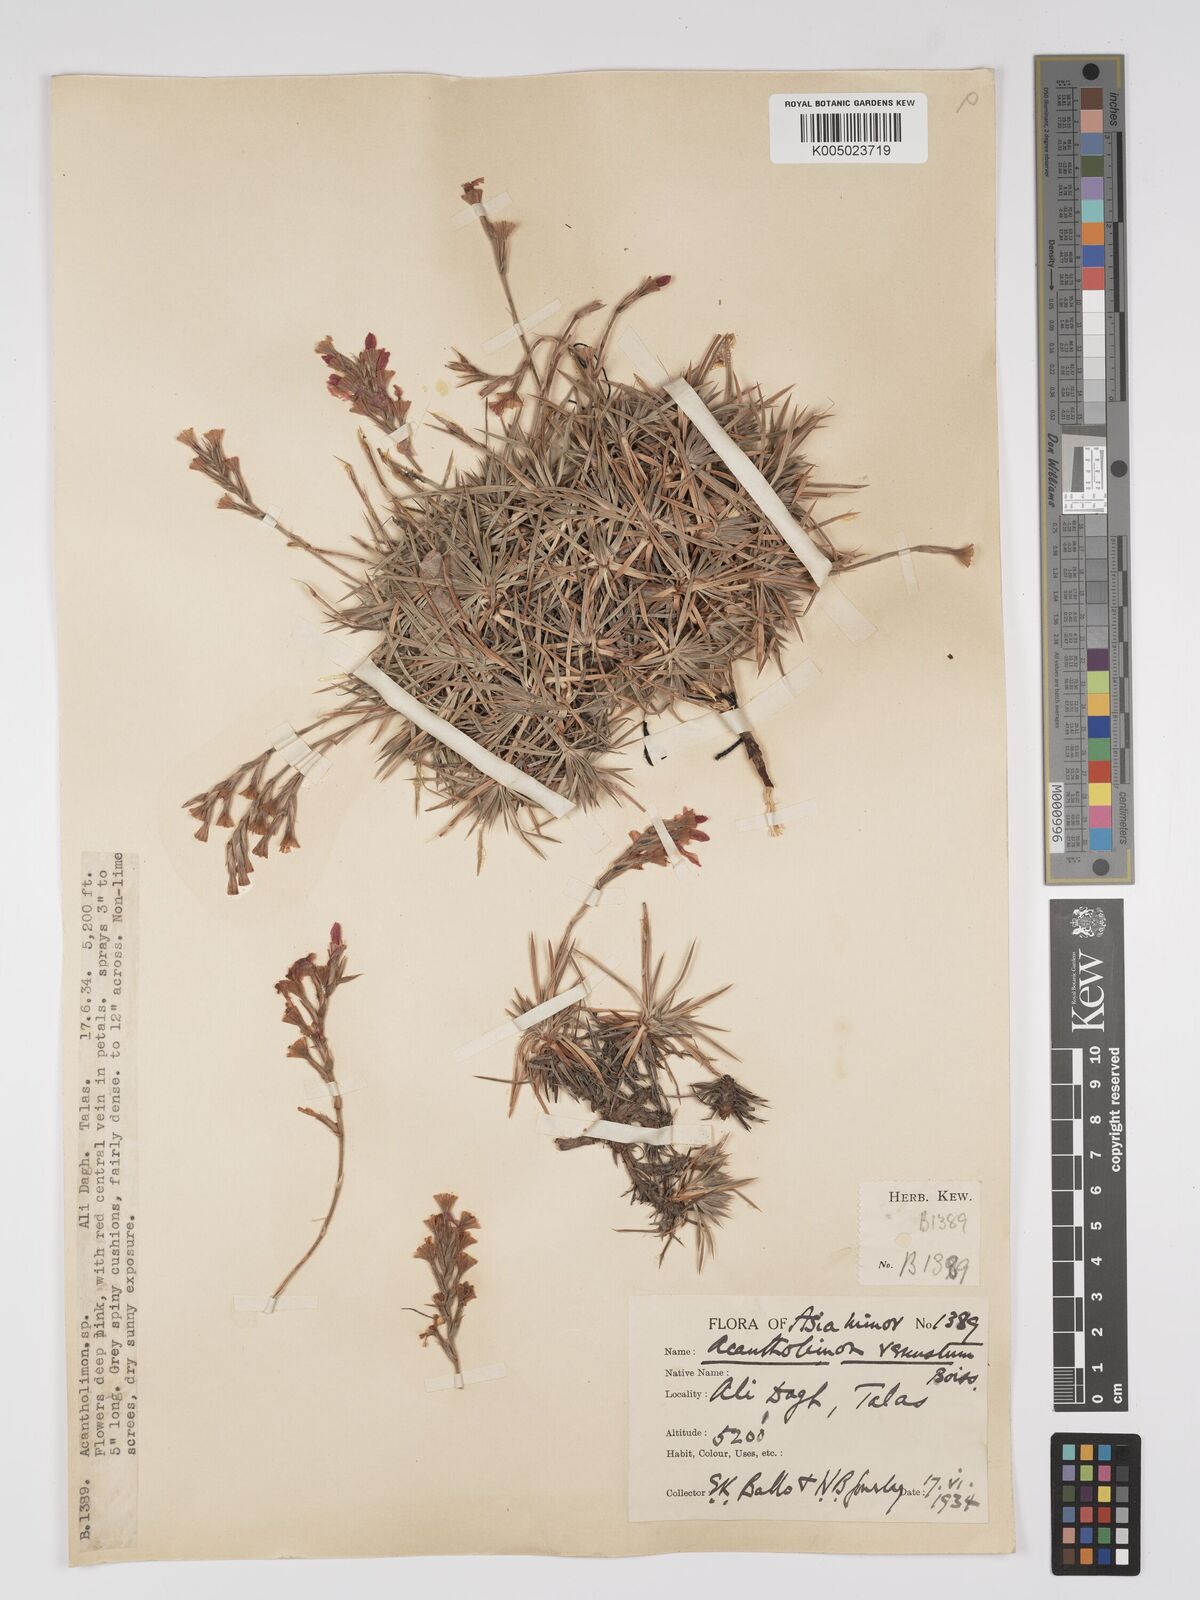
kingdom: Plantae
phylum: Tracheophyta
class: Magnoliopsida
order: Caryophyllales
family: Plumbaginaceae
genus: Acantholimon
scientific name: Acantholimon venustum
